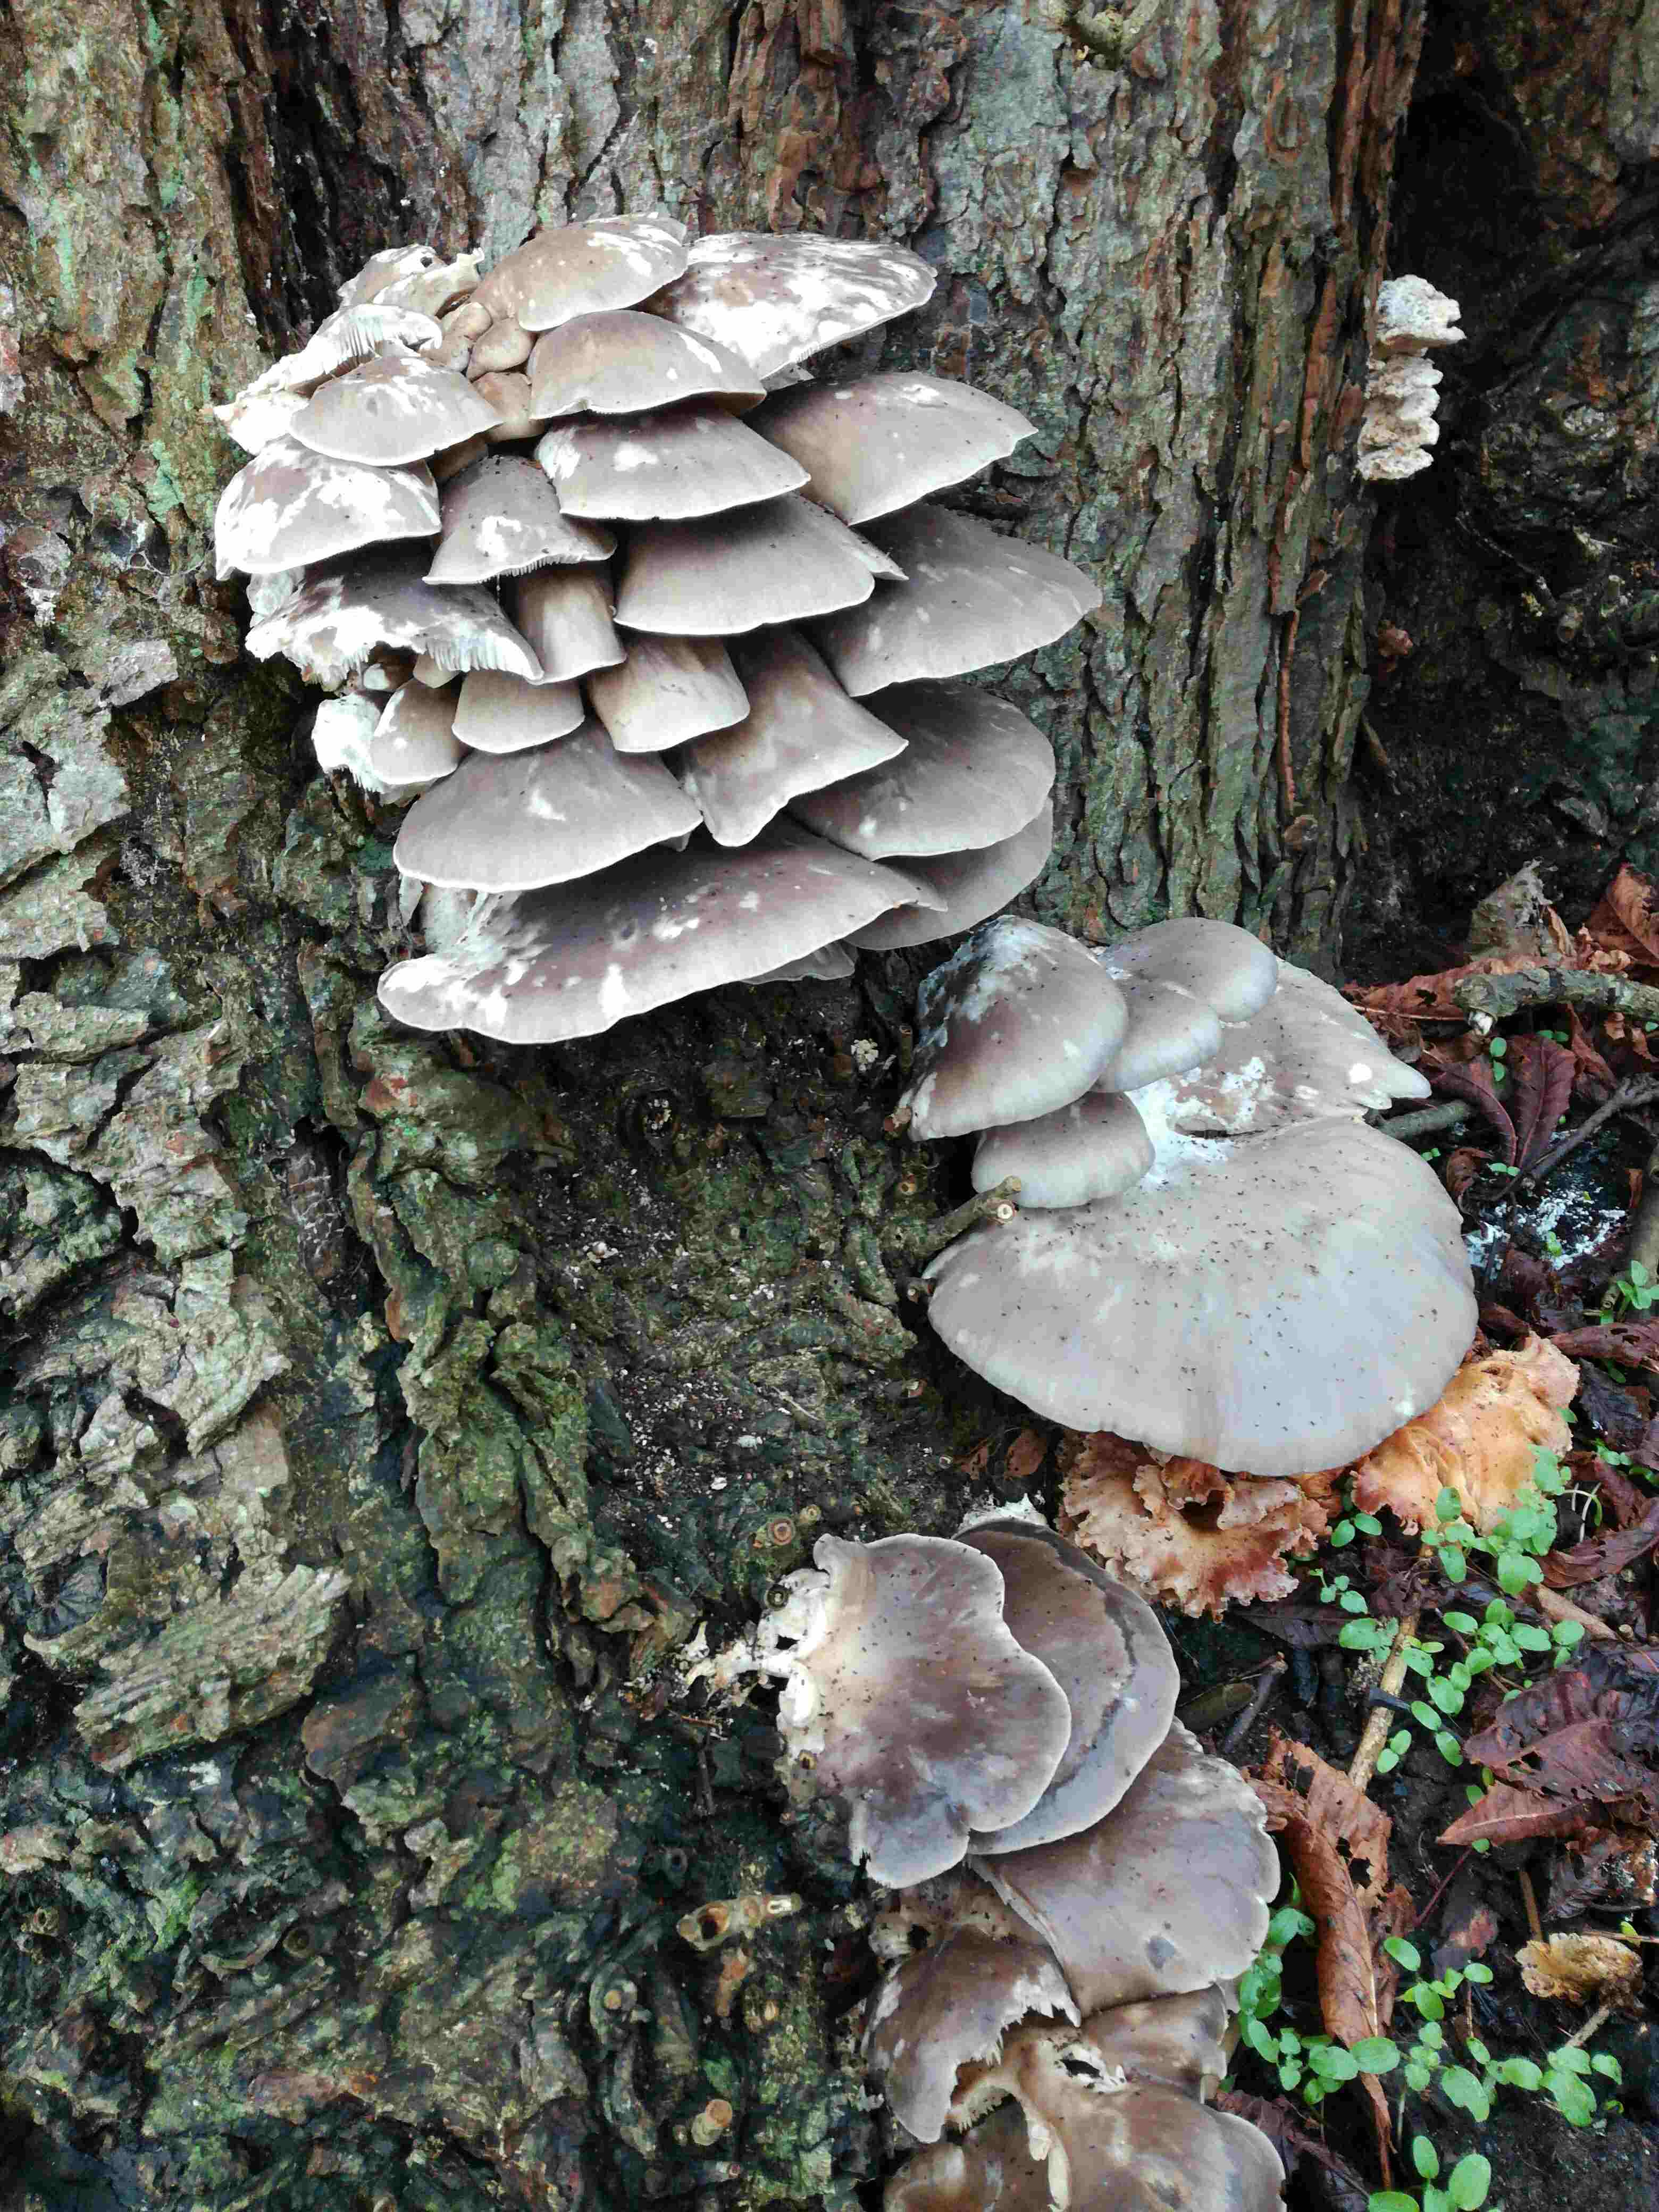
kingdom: Fungi
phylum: Basidiomycota
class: Agaricomycetes
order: Agaricales
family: Pleurotaceae
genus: Pleurotus
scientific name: Pleurotus ostreatus
